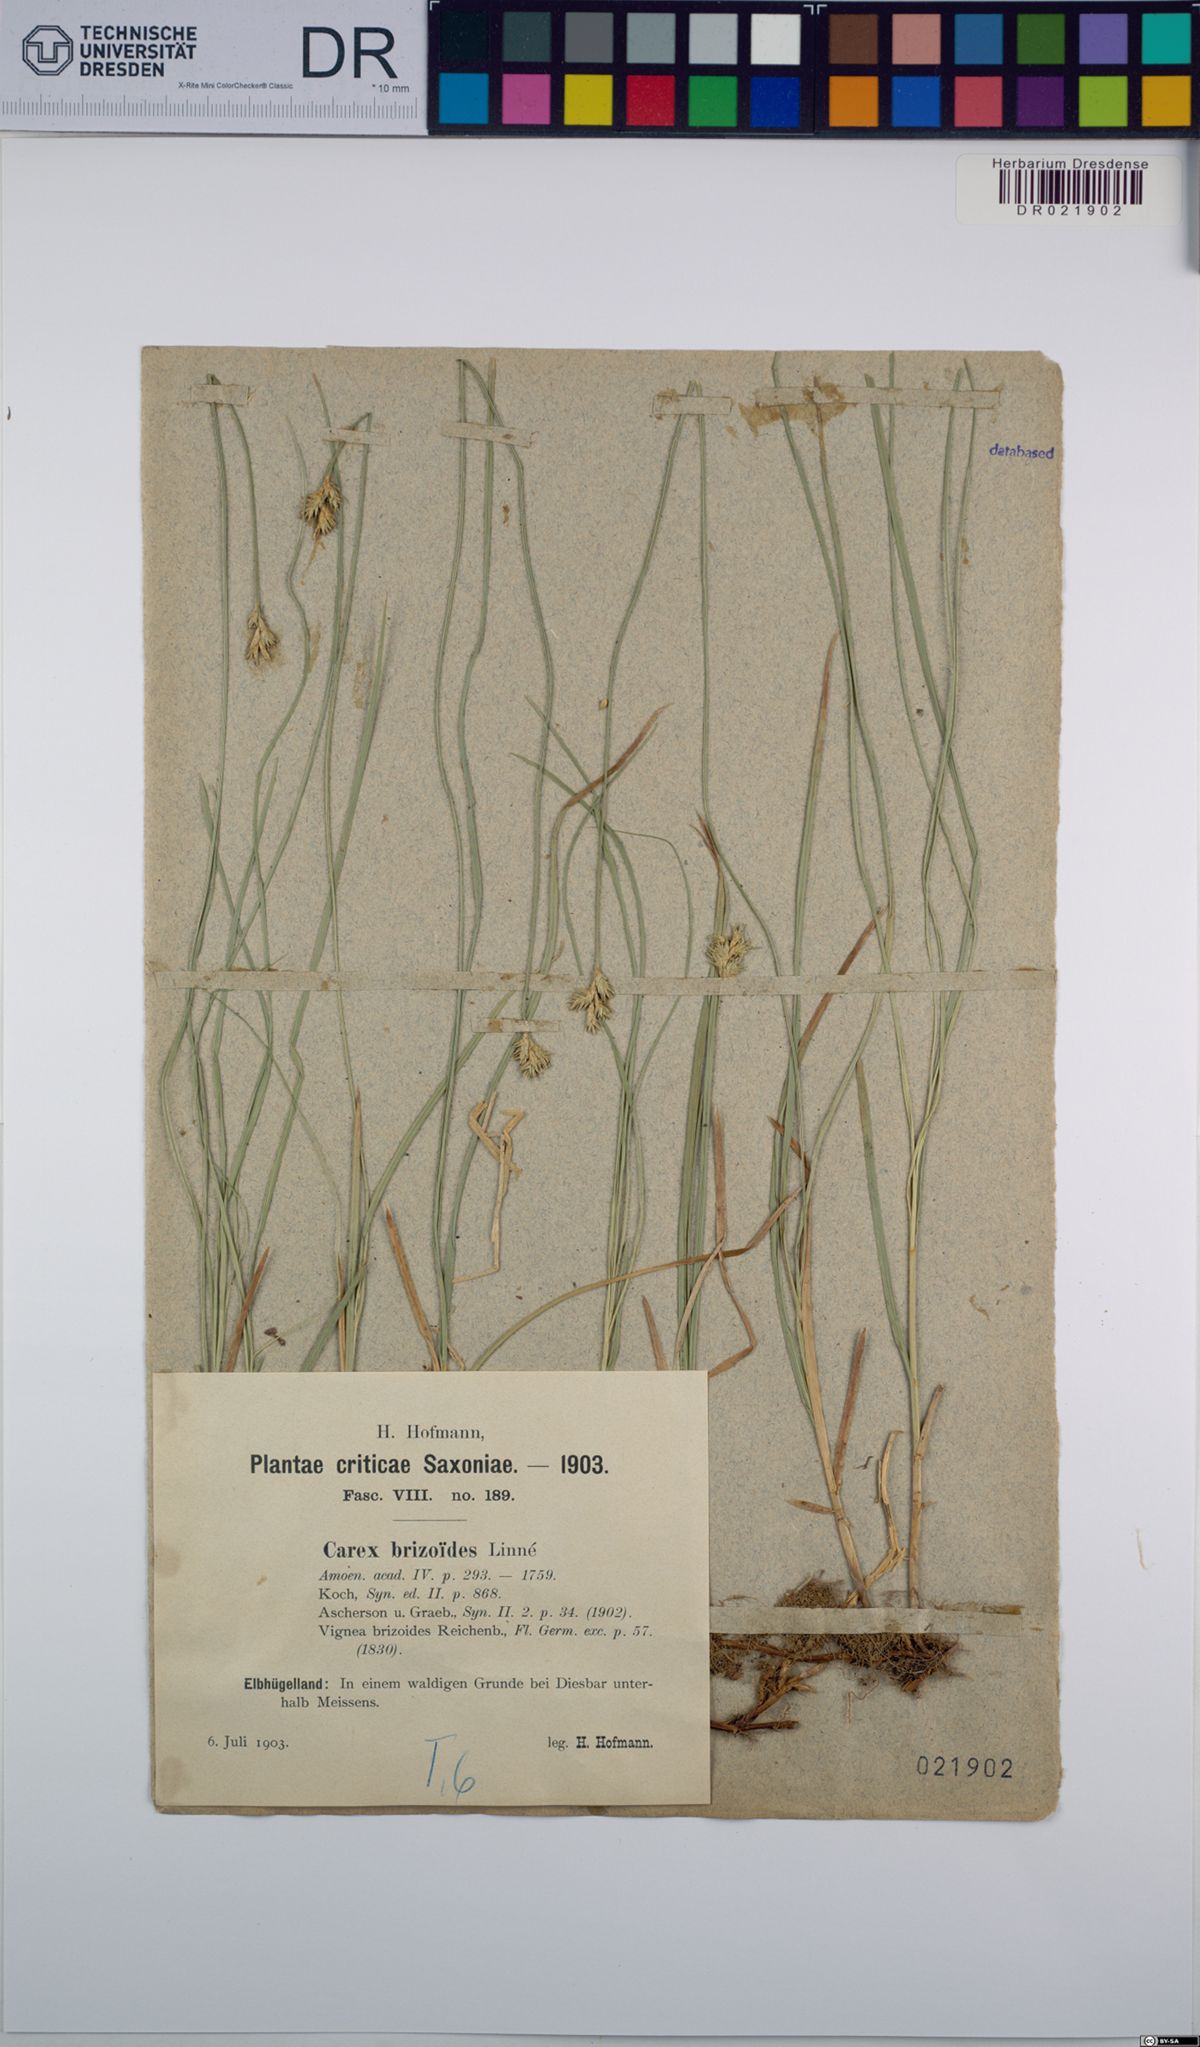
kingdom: Plantae
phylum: Tracheophyta
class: Liliopsida
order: Poales
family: Cyperaceae
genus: Carex
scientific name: Carex brizoides
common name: Quaking-grass sedge
